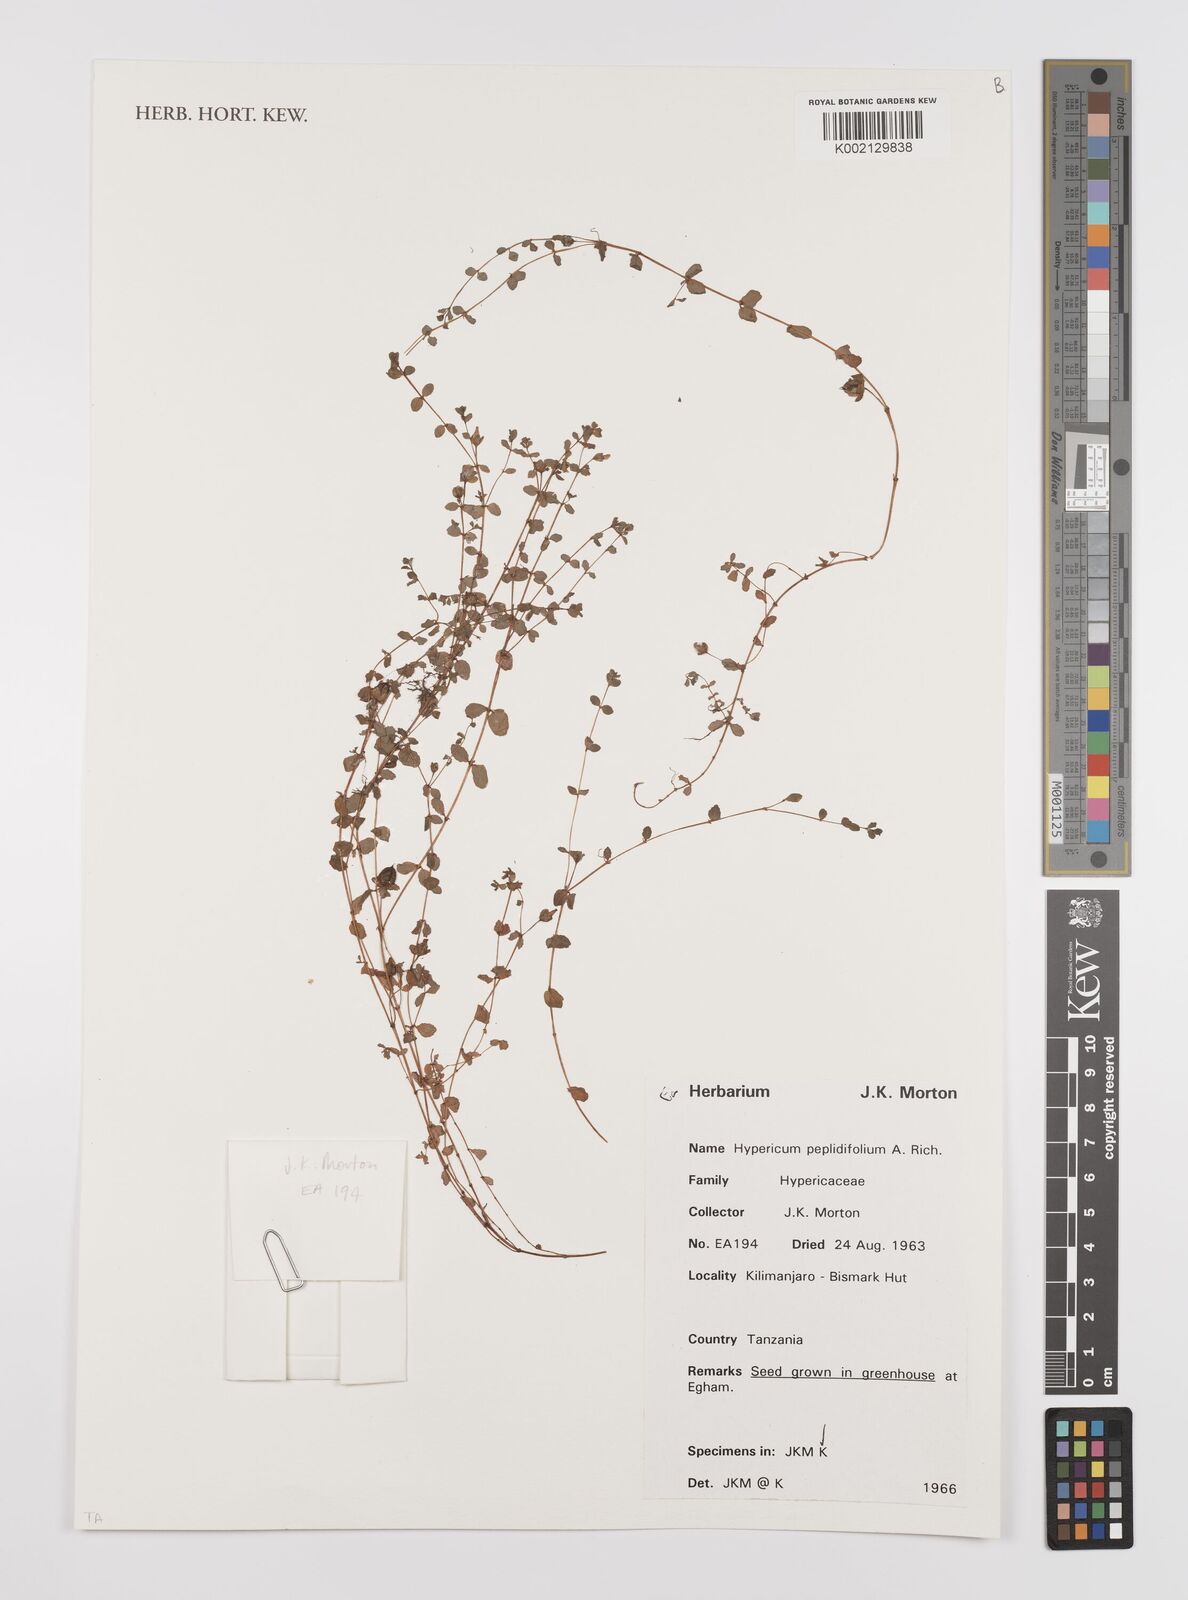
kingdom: Plantae
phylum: Tracheophyta
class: Magnoliopsida
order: Malpighiales
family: Hypericaceae
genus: Hypericum
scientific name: Hypericum peplidifolium
